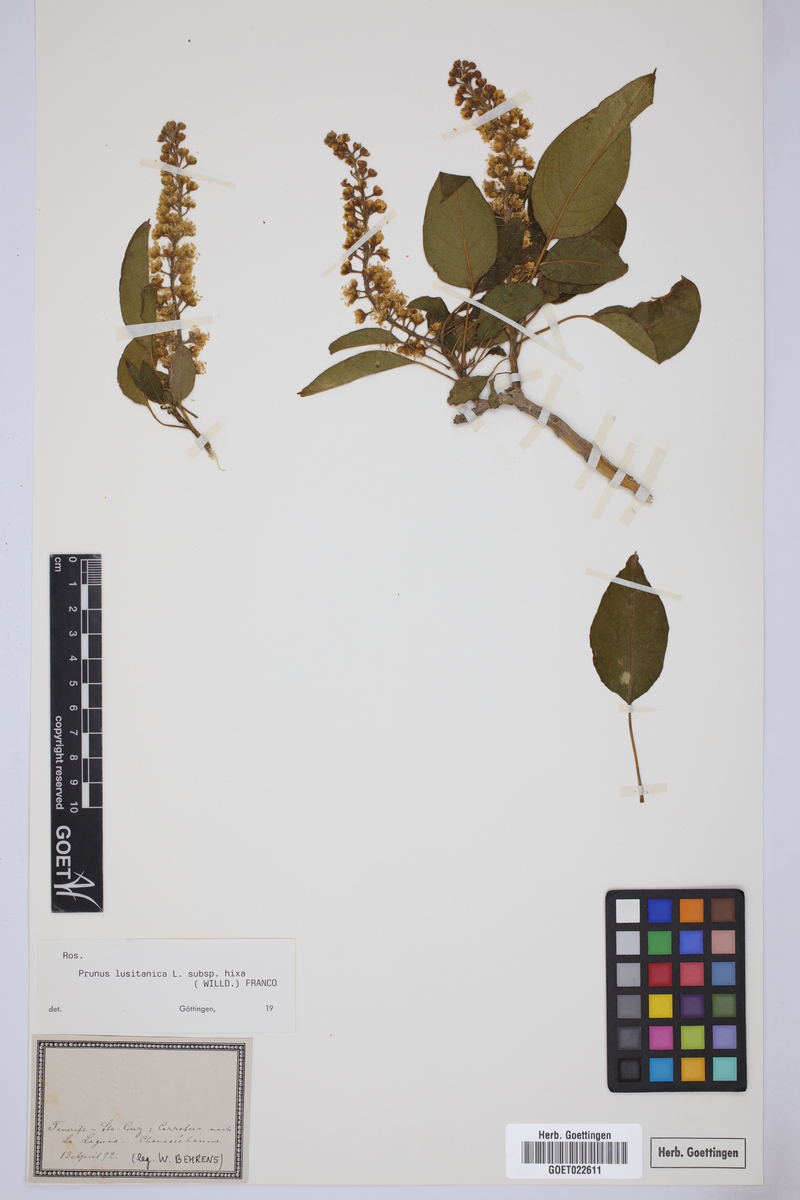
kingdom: Plantae
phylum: Tracheophyta
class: Magnoliopsida
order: Rosales
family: Rosaceae
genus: Prunus
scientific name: Prunus hixa
